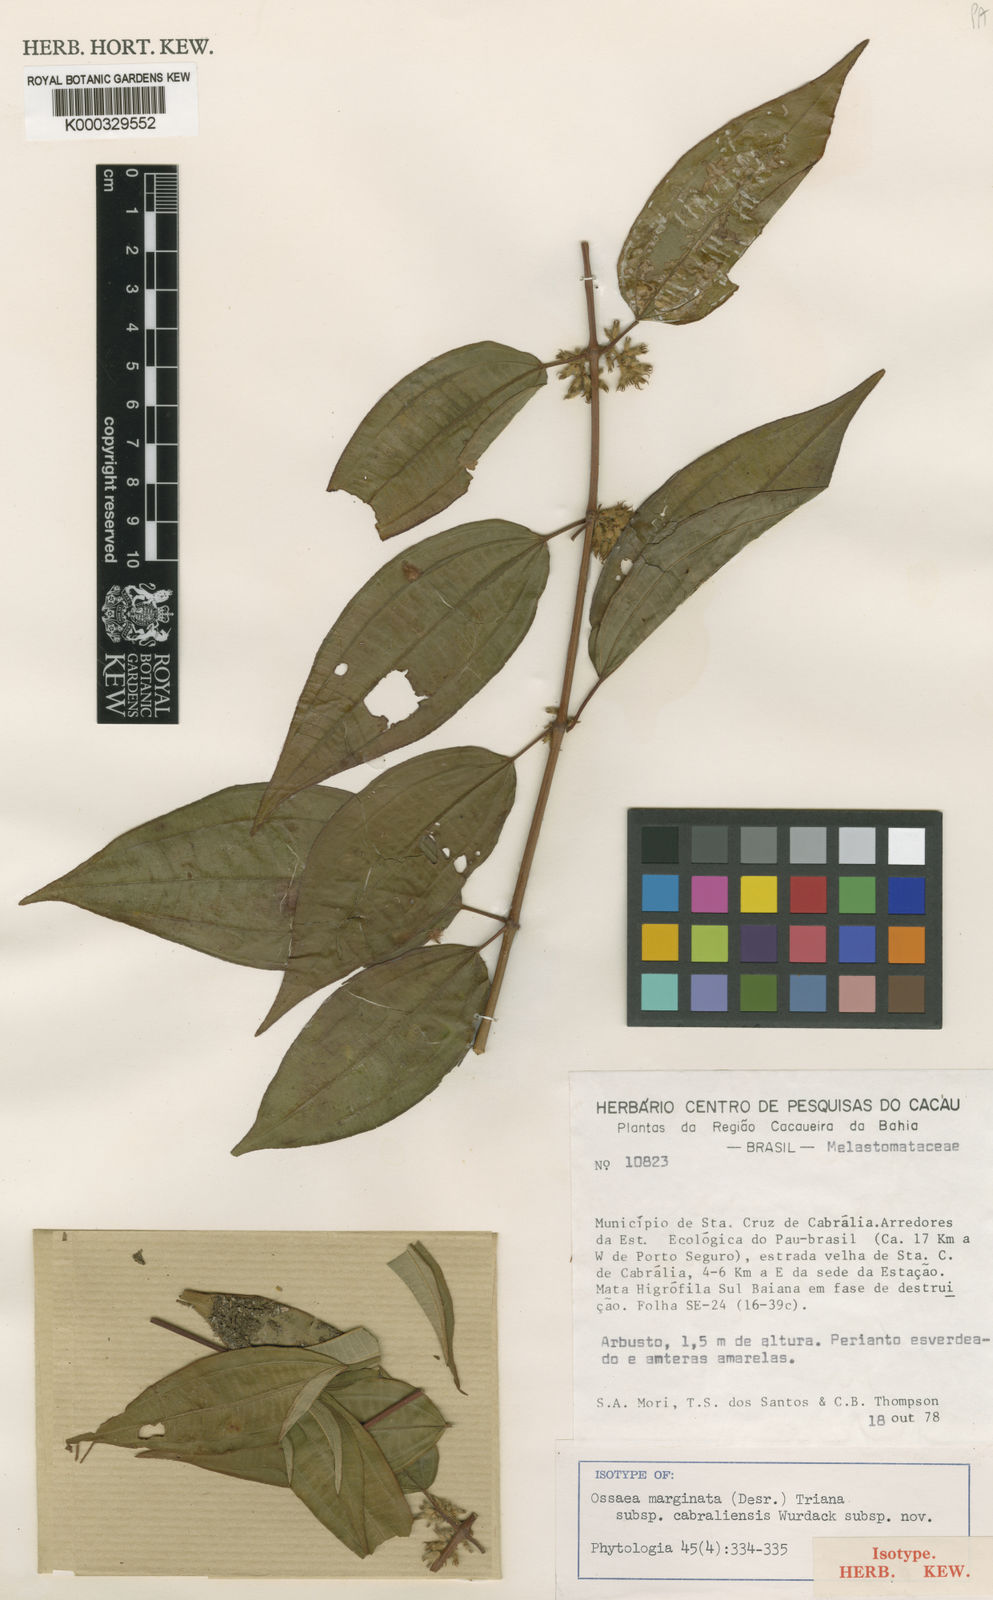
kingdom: Plantae
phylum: Tracheophyta
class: Magnoliopsida
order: Myrtales
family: Melastomataceae
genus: Miconia
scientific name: Miconia cabraliensis
